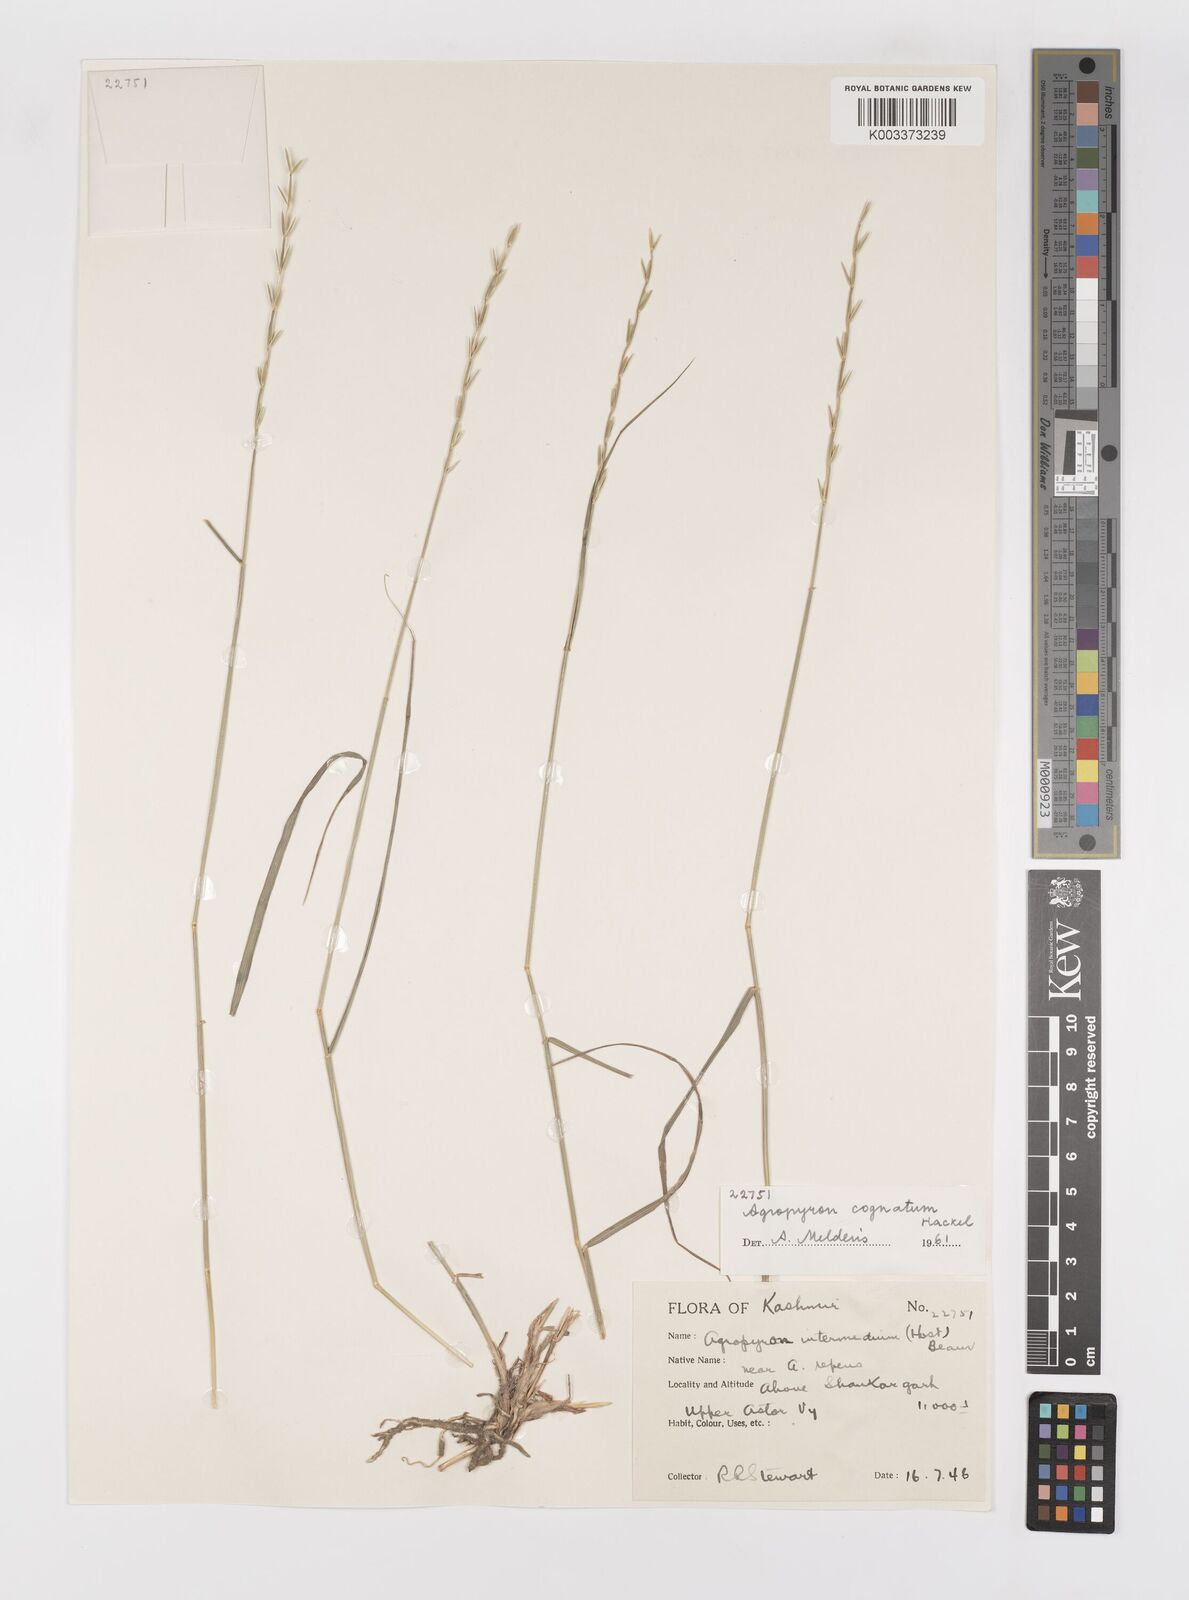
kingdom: Plantae
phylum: Tracheophyta
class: Liliopsida
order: Poales
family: Poaceae
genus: Pseudoroegneria
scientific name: Pseudoroegneria cognata
